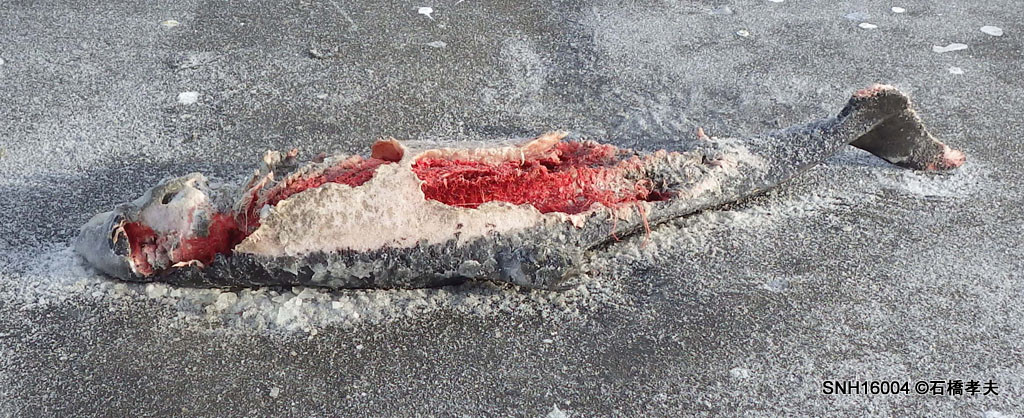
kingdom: Animalia
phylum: Chordata
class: Mammalia
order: Cetacea
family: Phocoenidae
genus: Phocoena
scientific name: Phocoena phocoena
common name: Harbour porpoise
